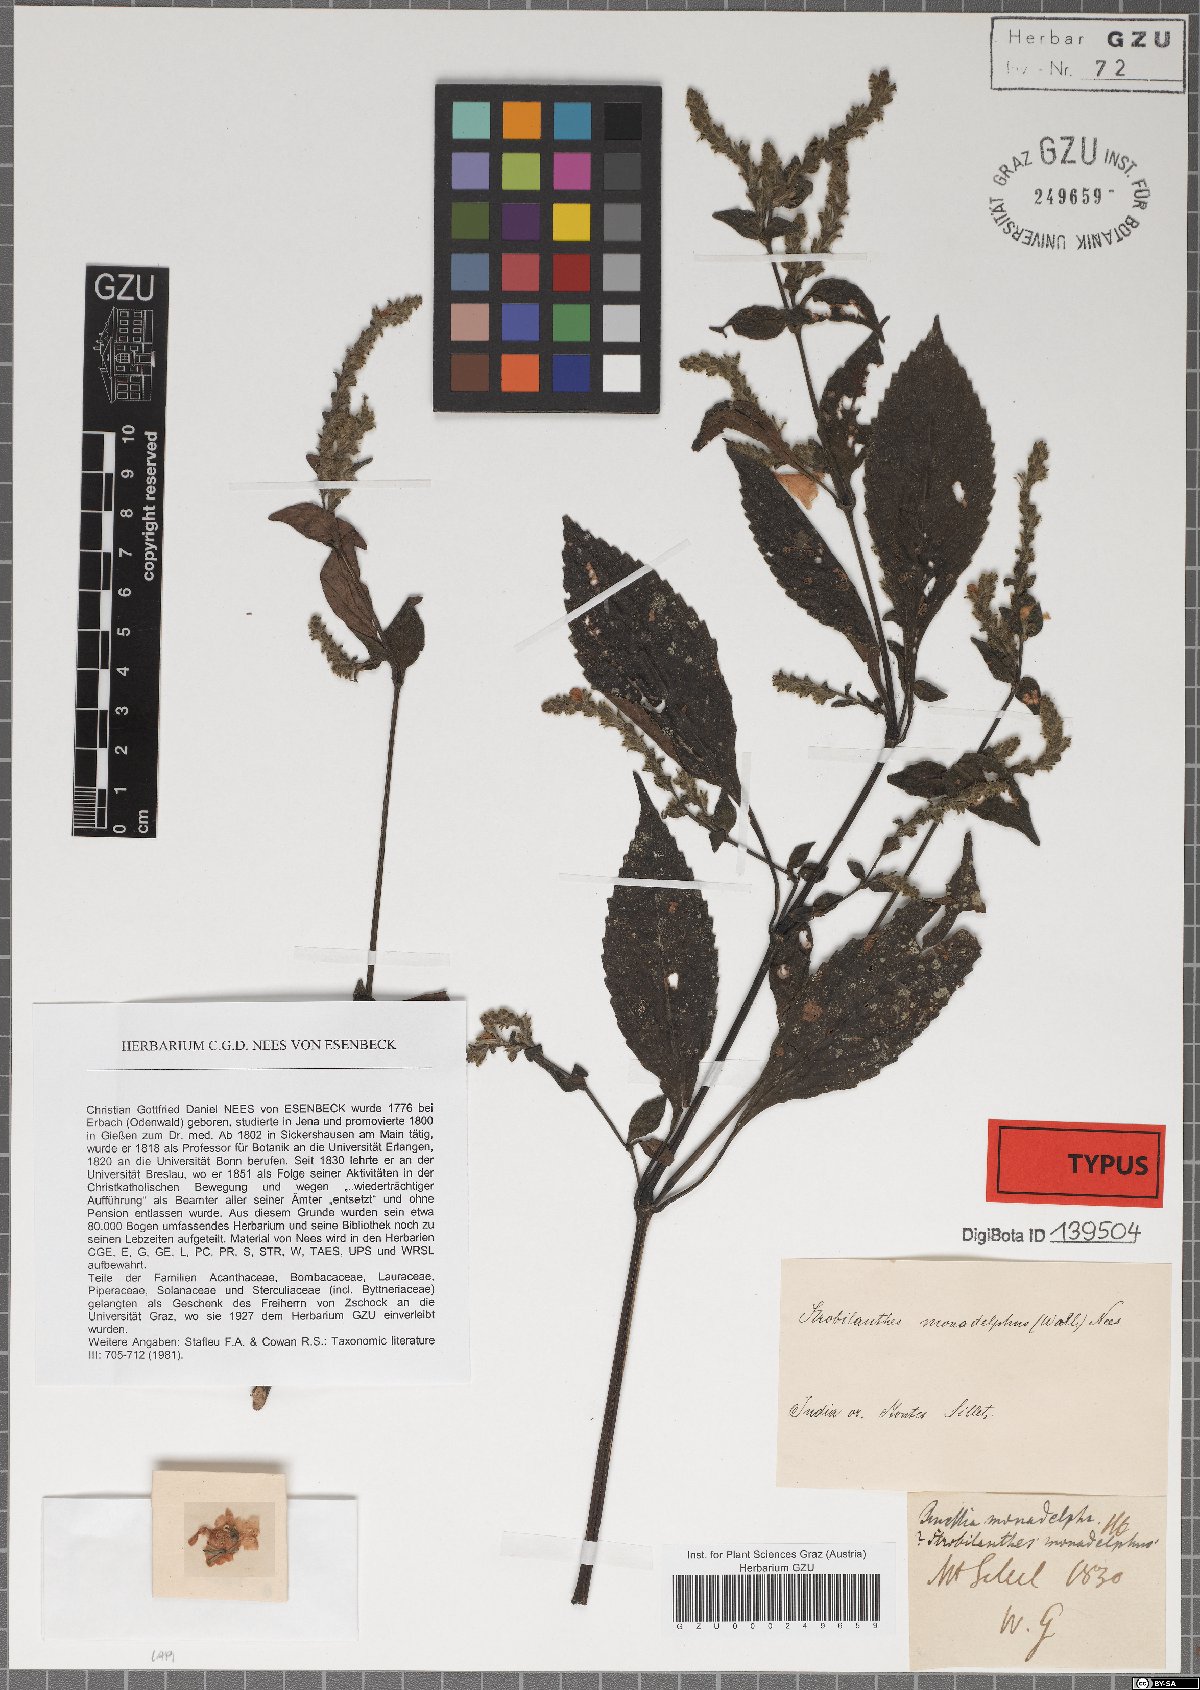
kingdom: Plantae
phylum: Tracheophyta
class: Magnoliopsida
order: Lamiales
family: Acanthaceae
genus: Strobilanthes
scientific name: Strobilanthes monadelpha
